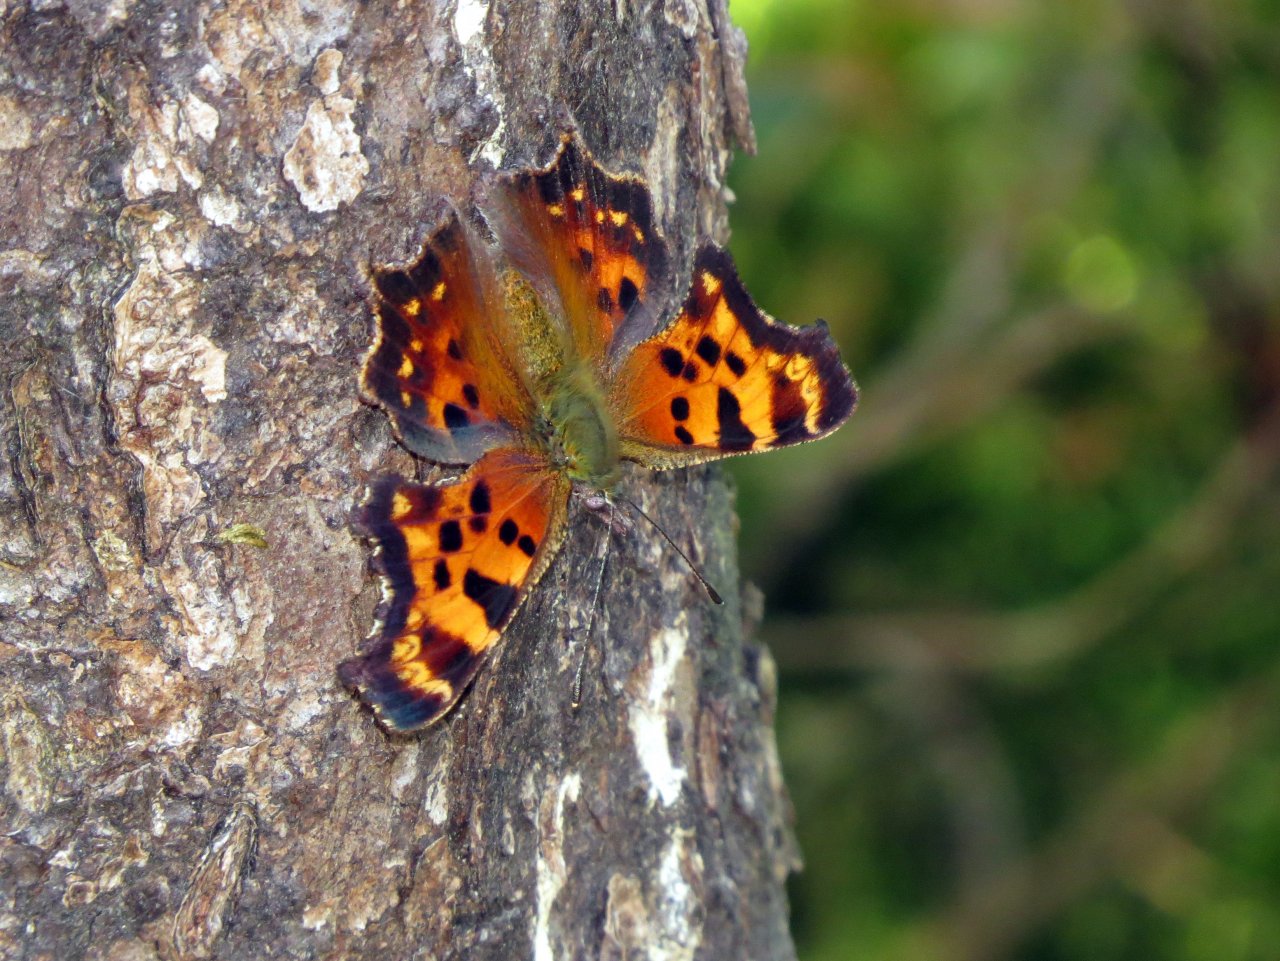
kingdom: Animalia
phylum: Arthropoda
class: Insecta
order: Lepidoptera
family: Nymphalidae
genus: Polygonia
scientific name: Polygonia faunus
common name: Green Comma
